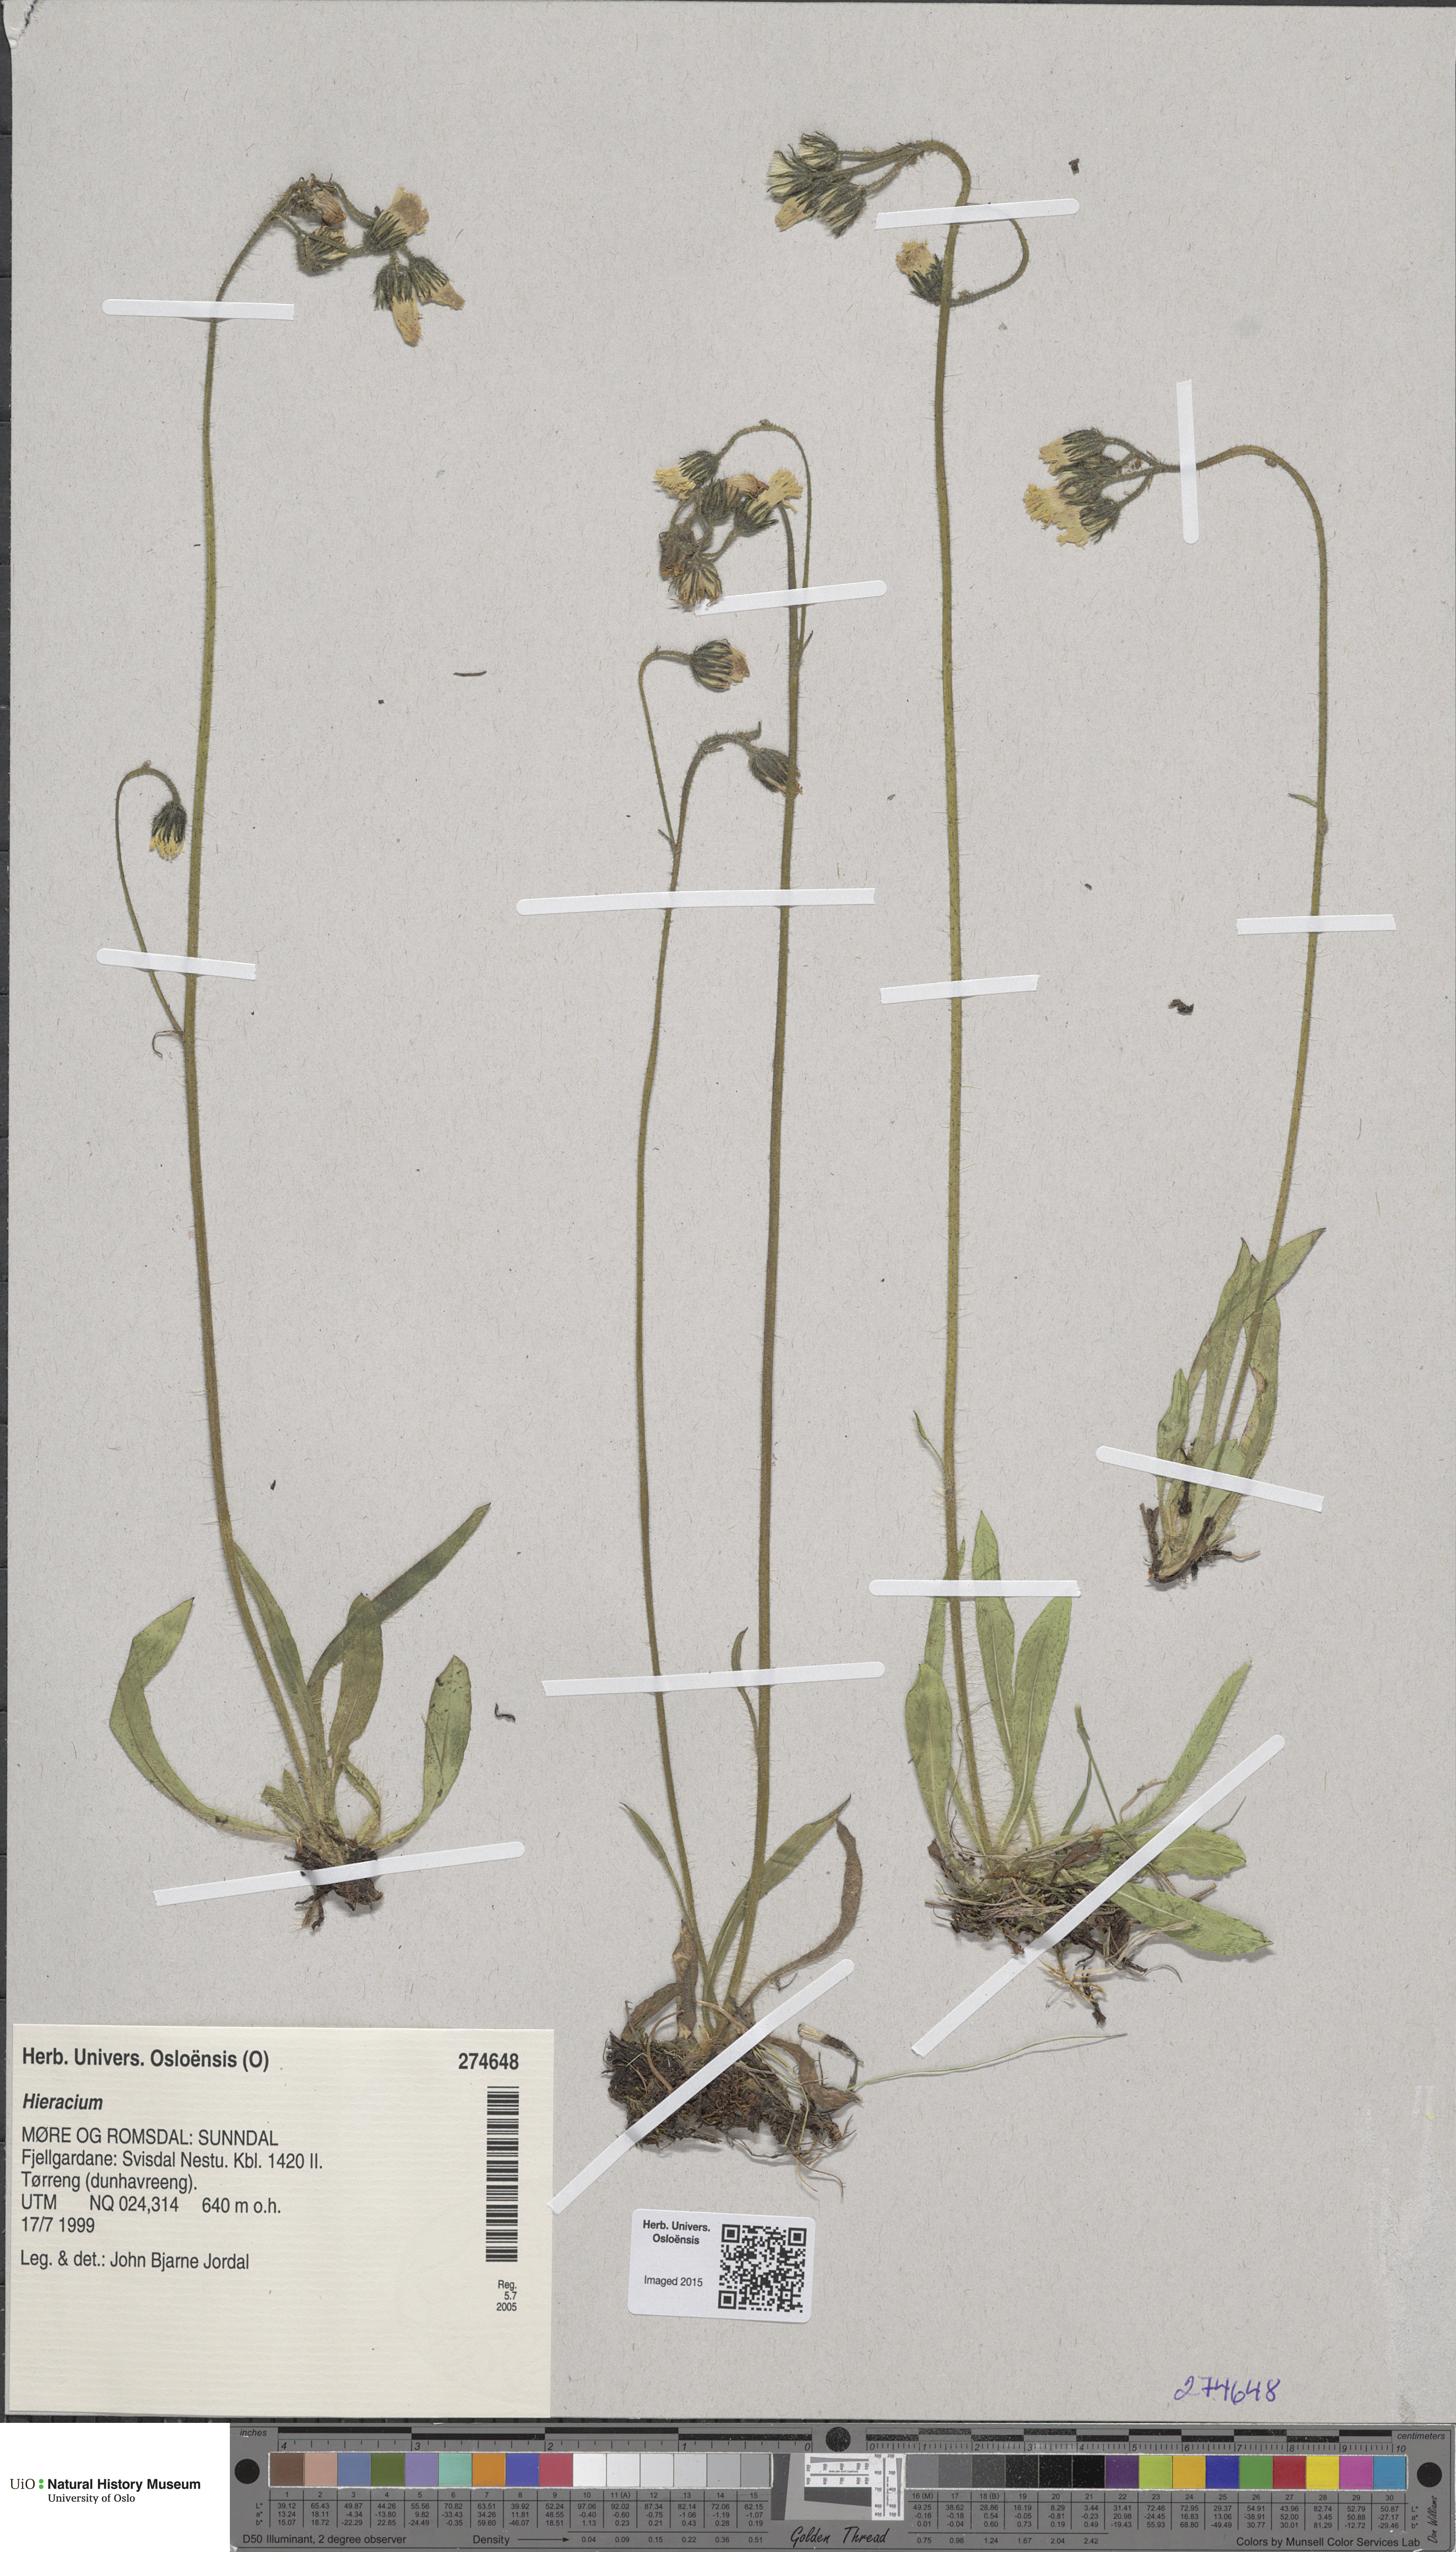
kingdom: Plantae
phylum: Tracheophyta
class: Magnoliopsida
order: Asterales
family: Asteraceae
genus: Hieracium
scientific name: Hieracium
